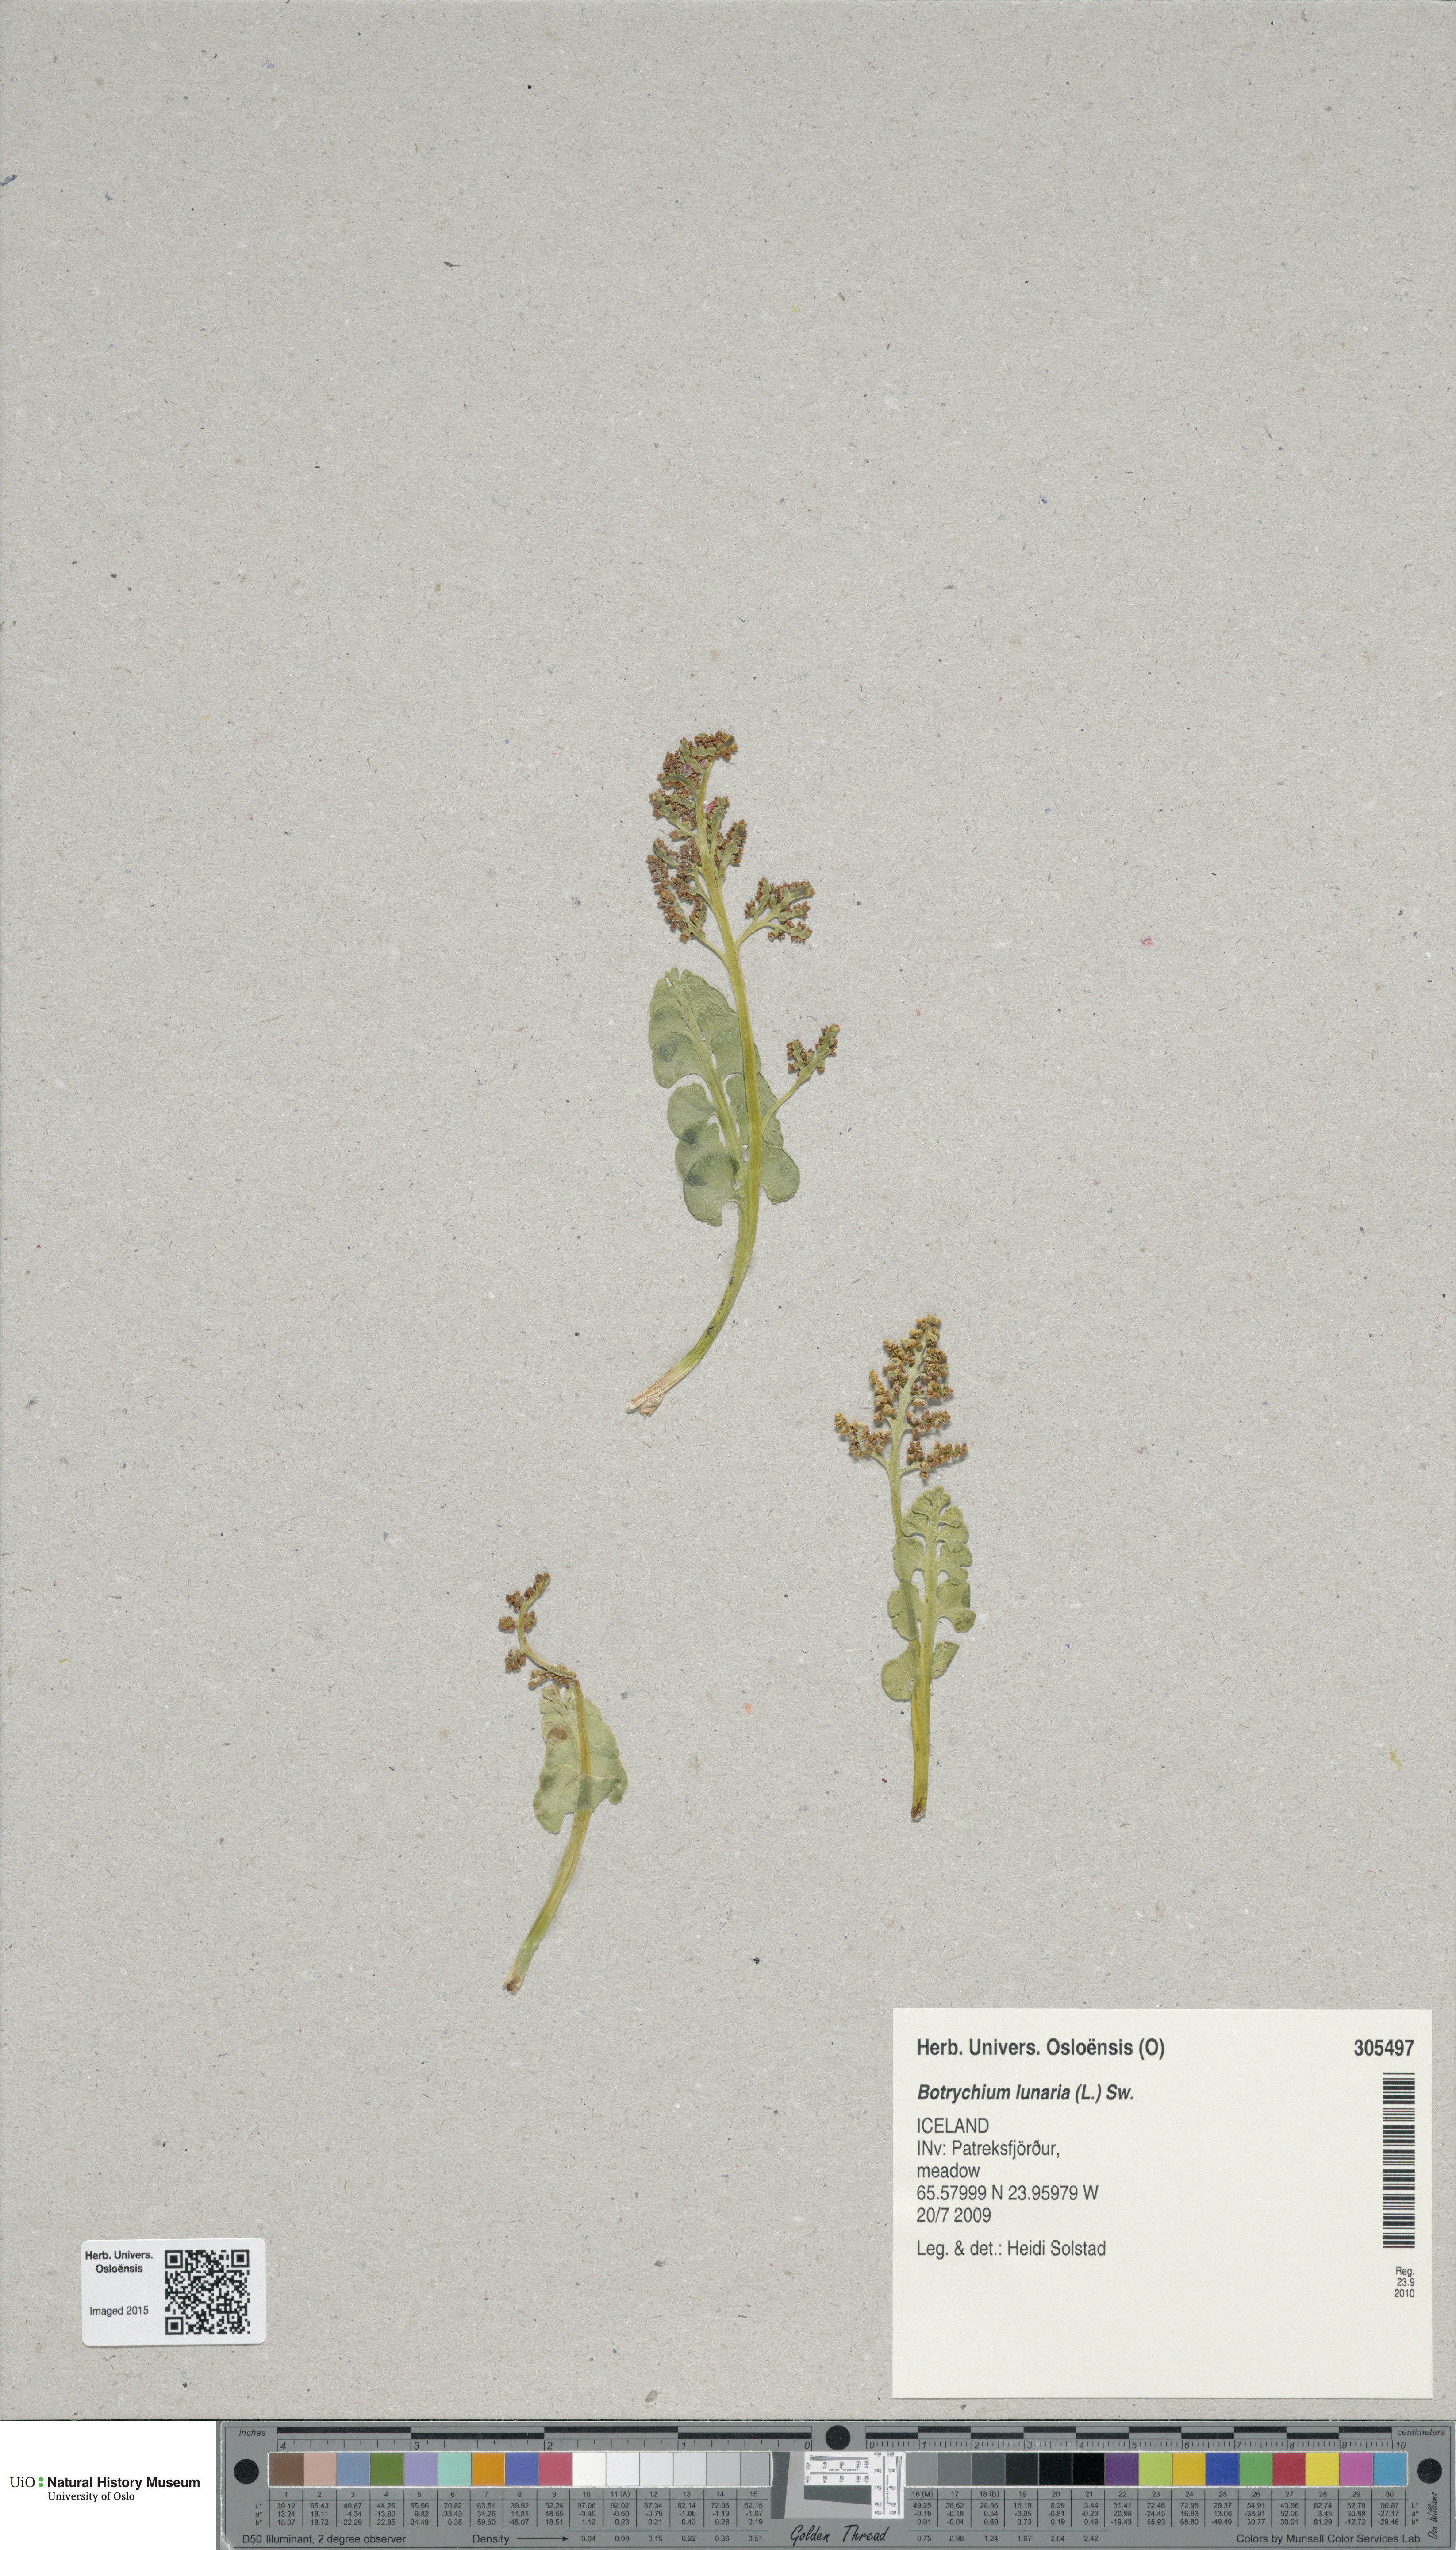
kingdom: Plantae
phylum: Tracheophyta
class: Polypodiopsida
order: Ophioglossales
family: Ophioglossaceae
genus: Botrychium
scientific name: Botrychium lunaria
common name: Moonwort
